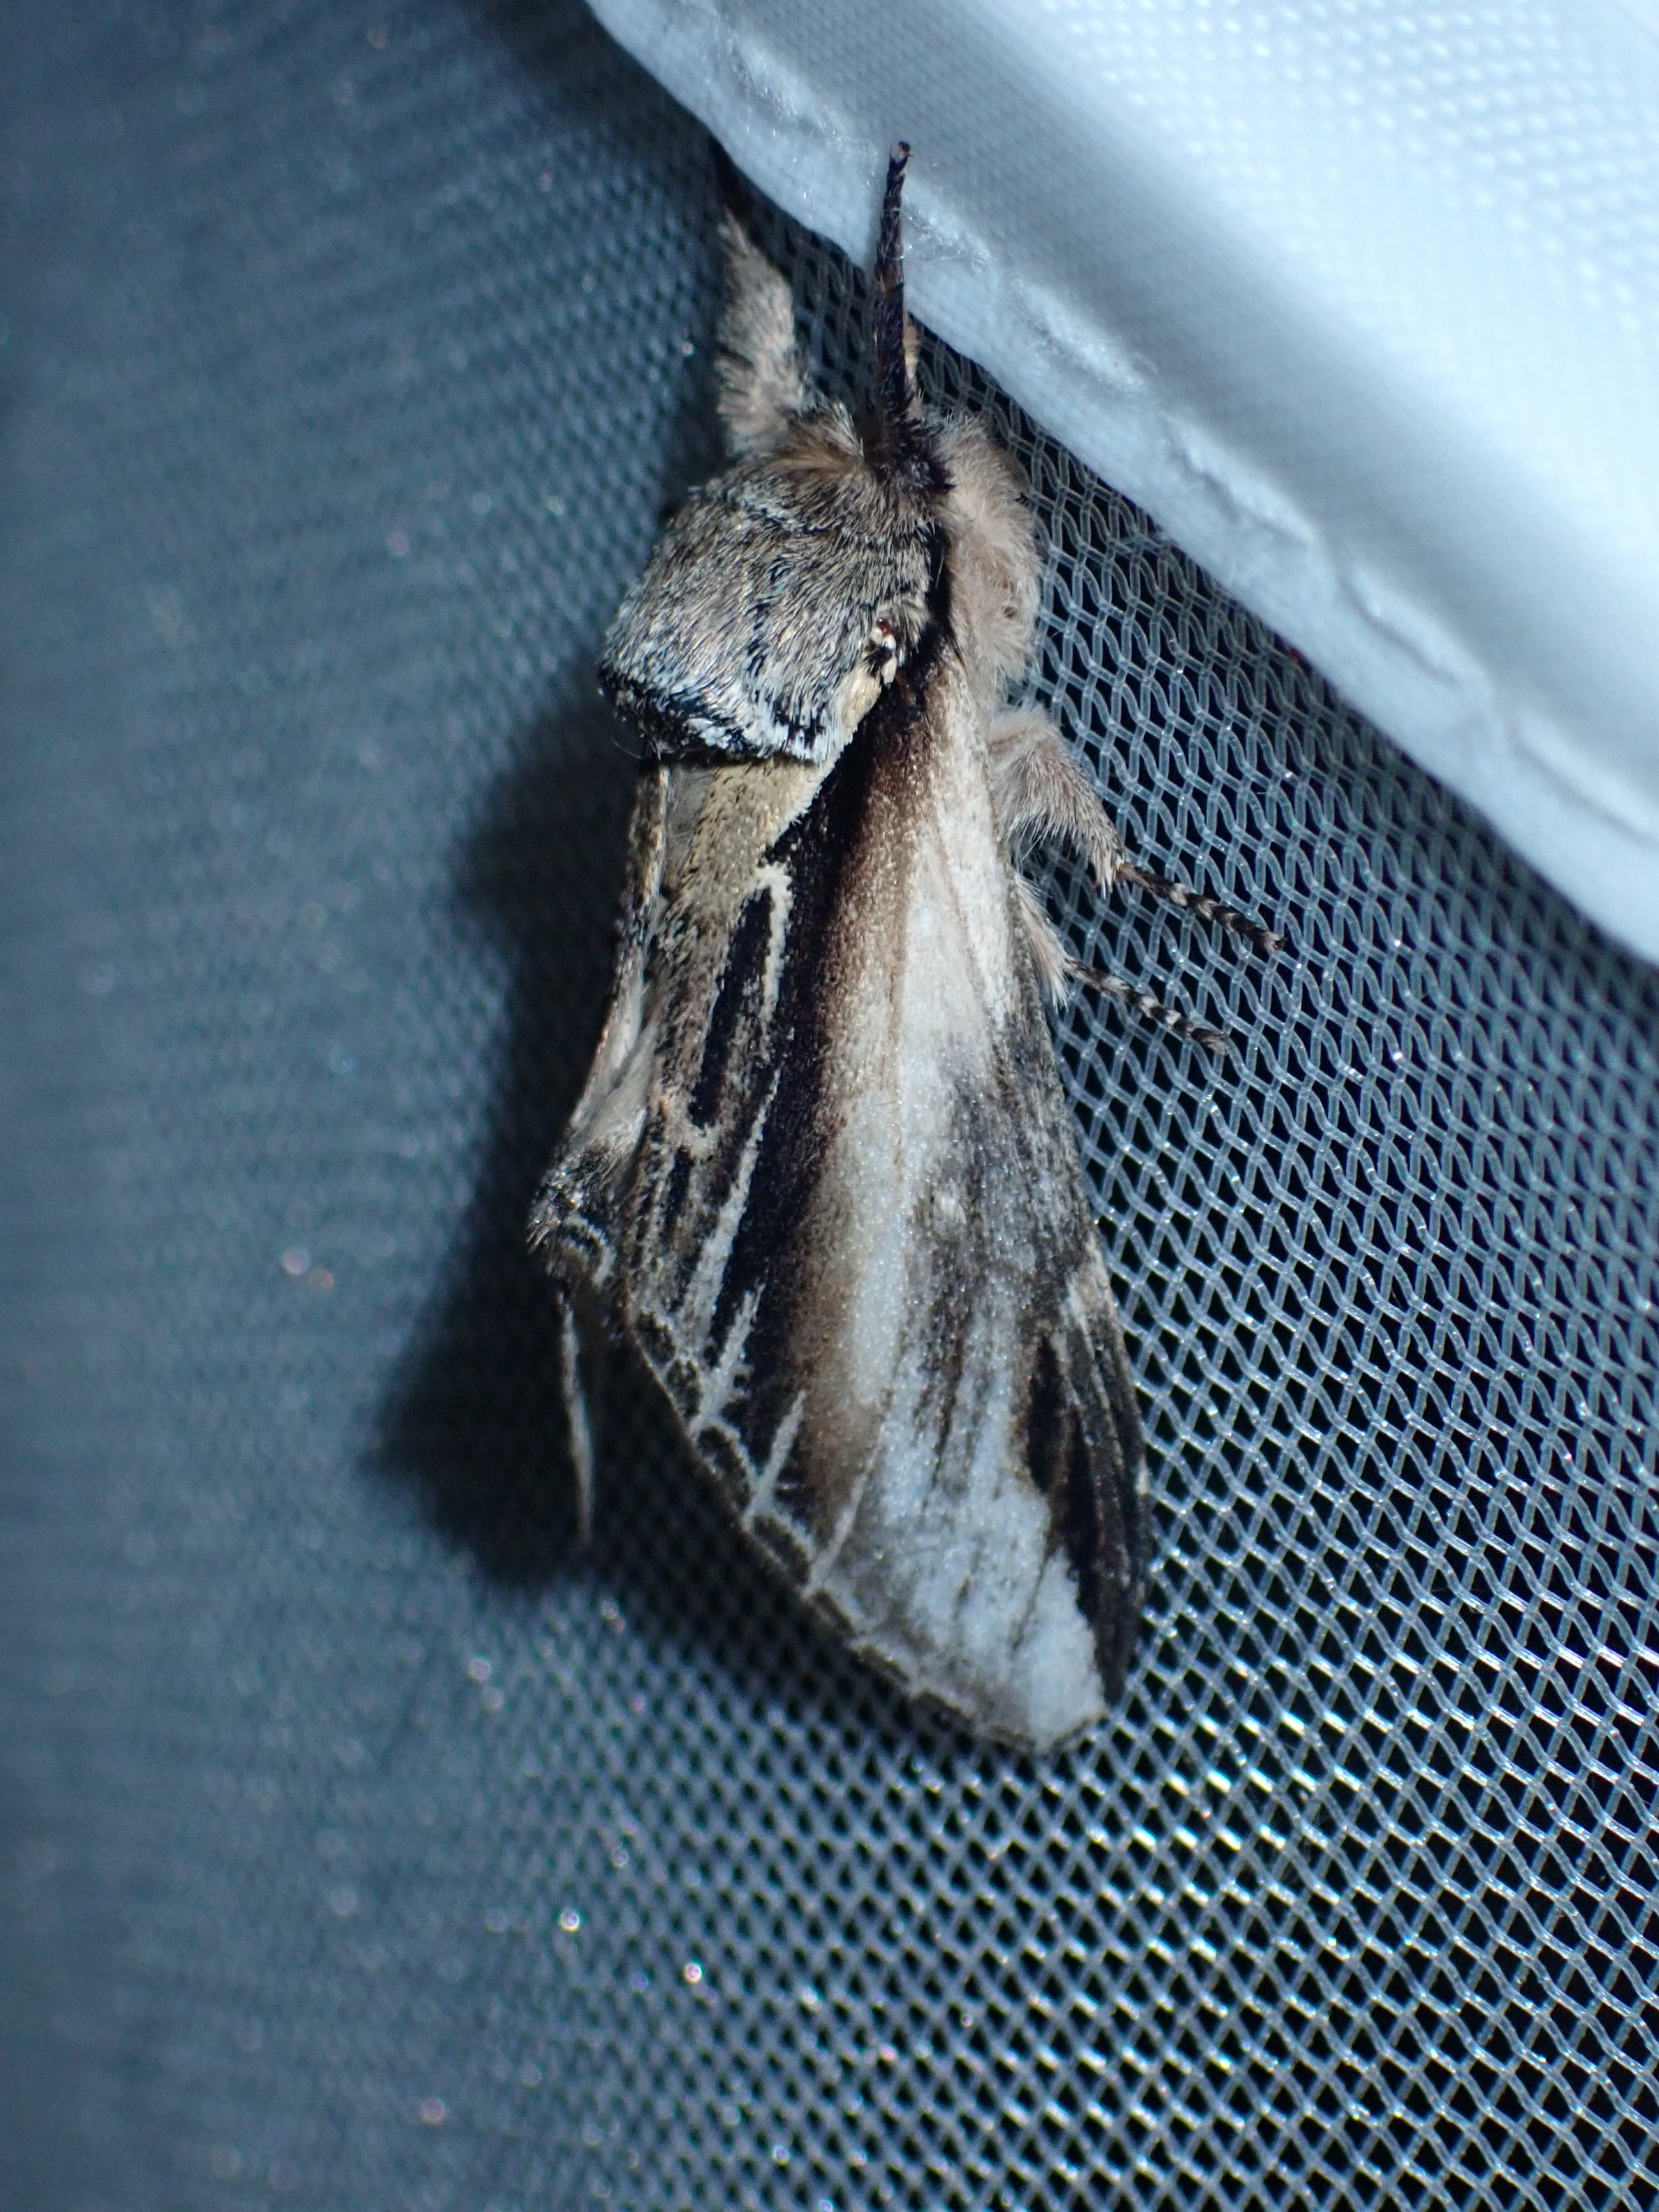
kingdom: Animalia
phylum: Arthropoda
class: Insecta
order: Lepidoptera
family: Notodontidae
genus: Pheosia
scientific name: Pheosia tremula
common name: Poppelporcelænsspinder
